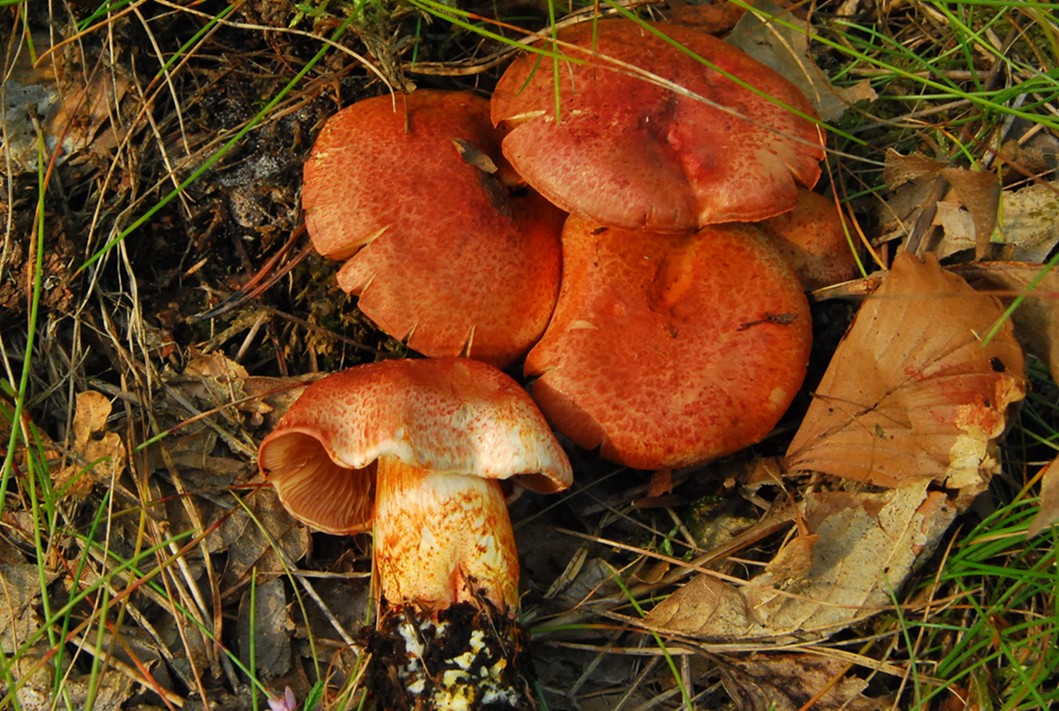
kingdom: Fungi
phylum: Basidiomycota
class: Agaricomycetes
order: Agaricales
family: Cortinariaceae
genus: Cortinarius
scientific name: Cortinarius bolaris
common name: cinnoberskællet slørhat
